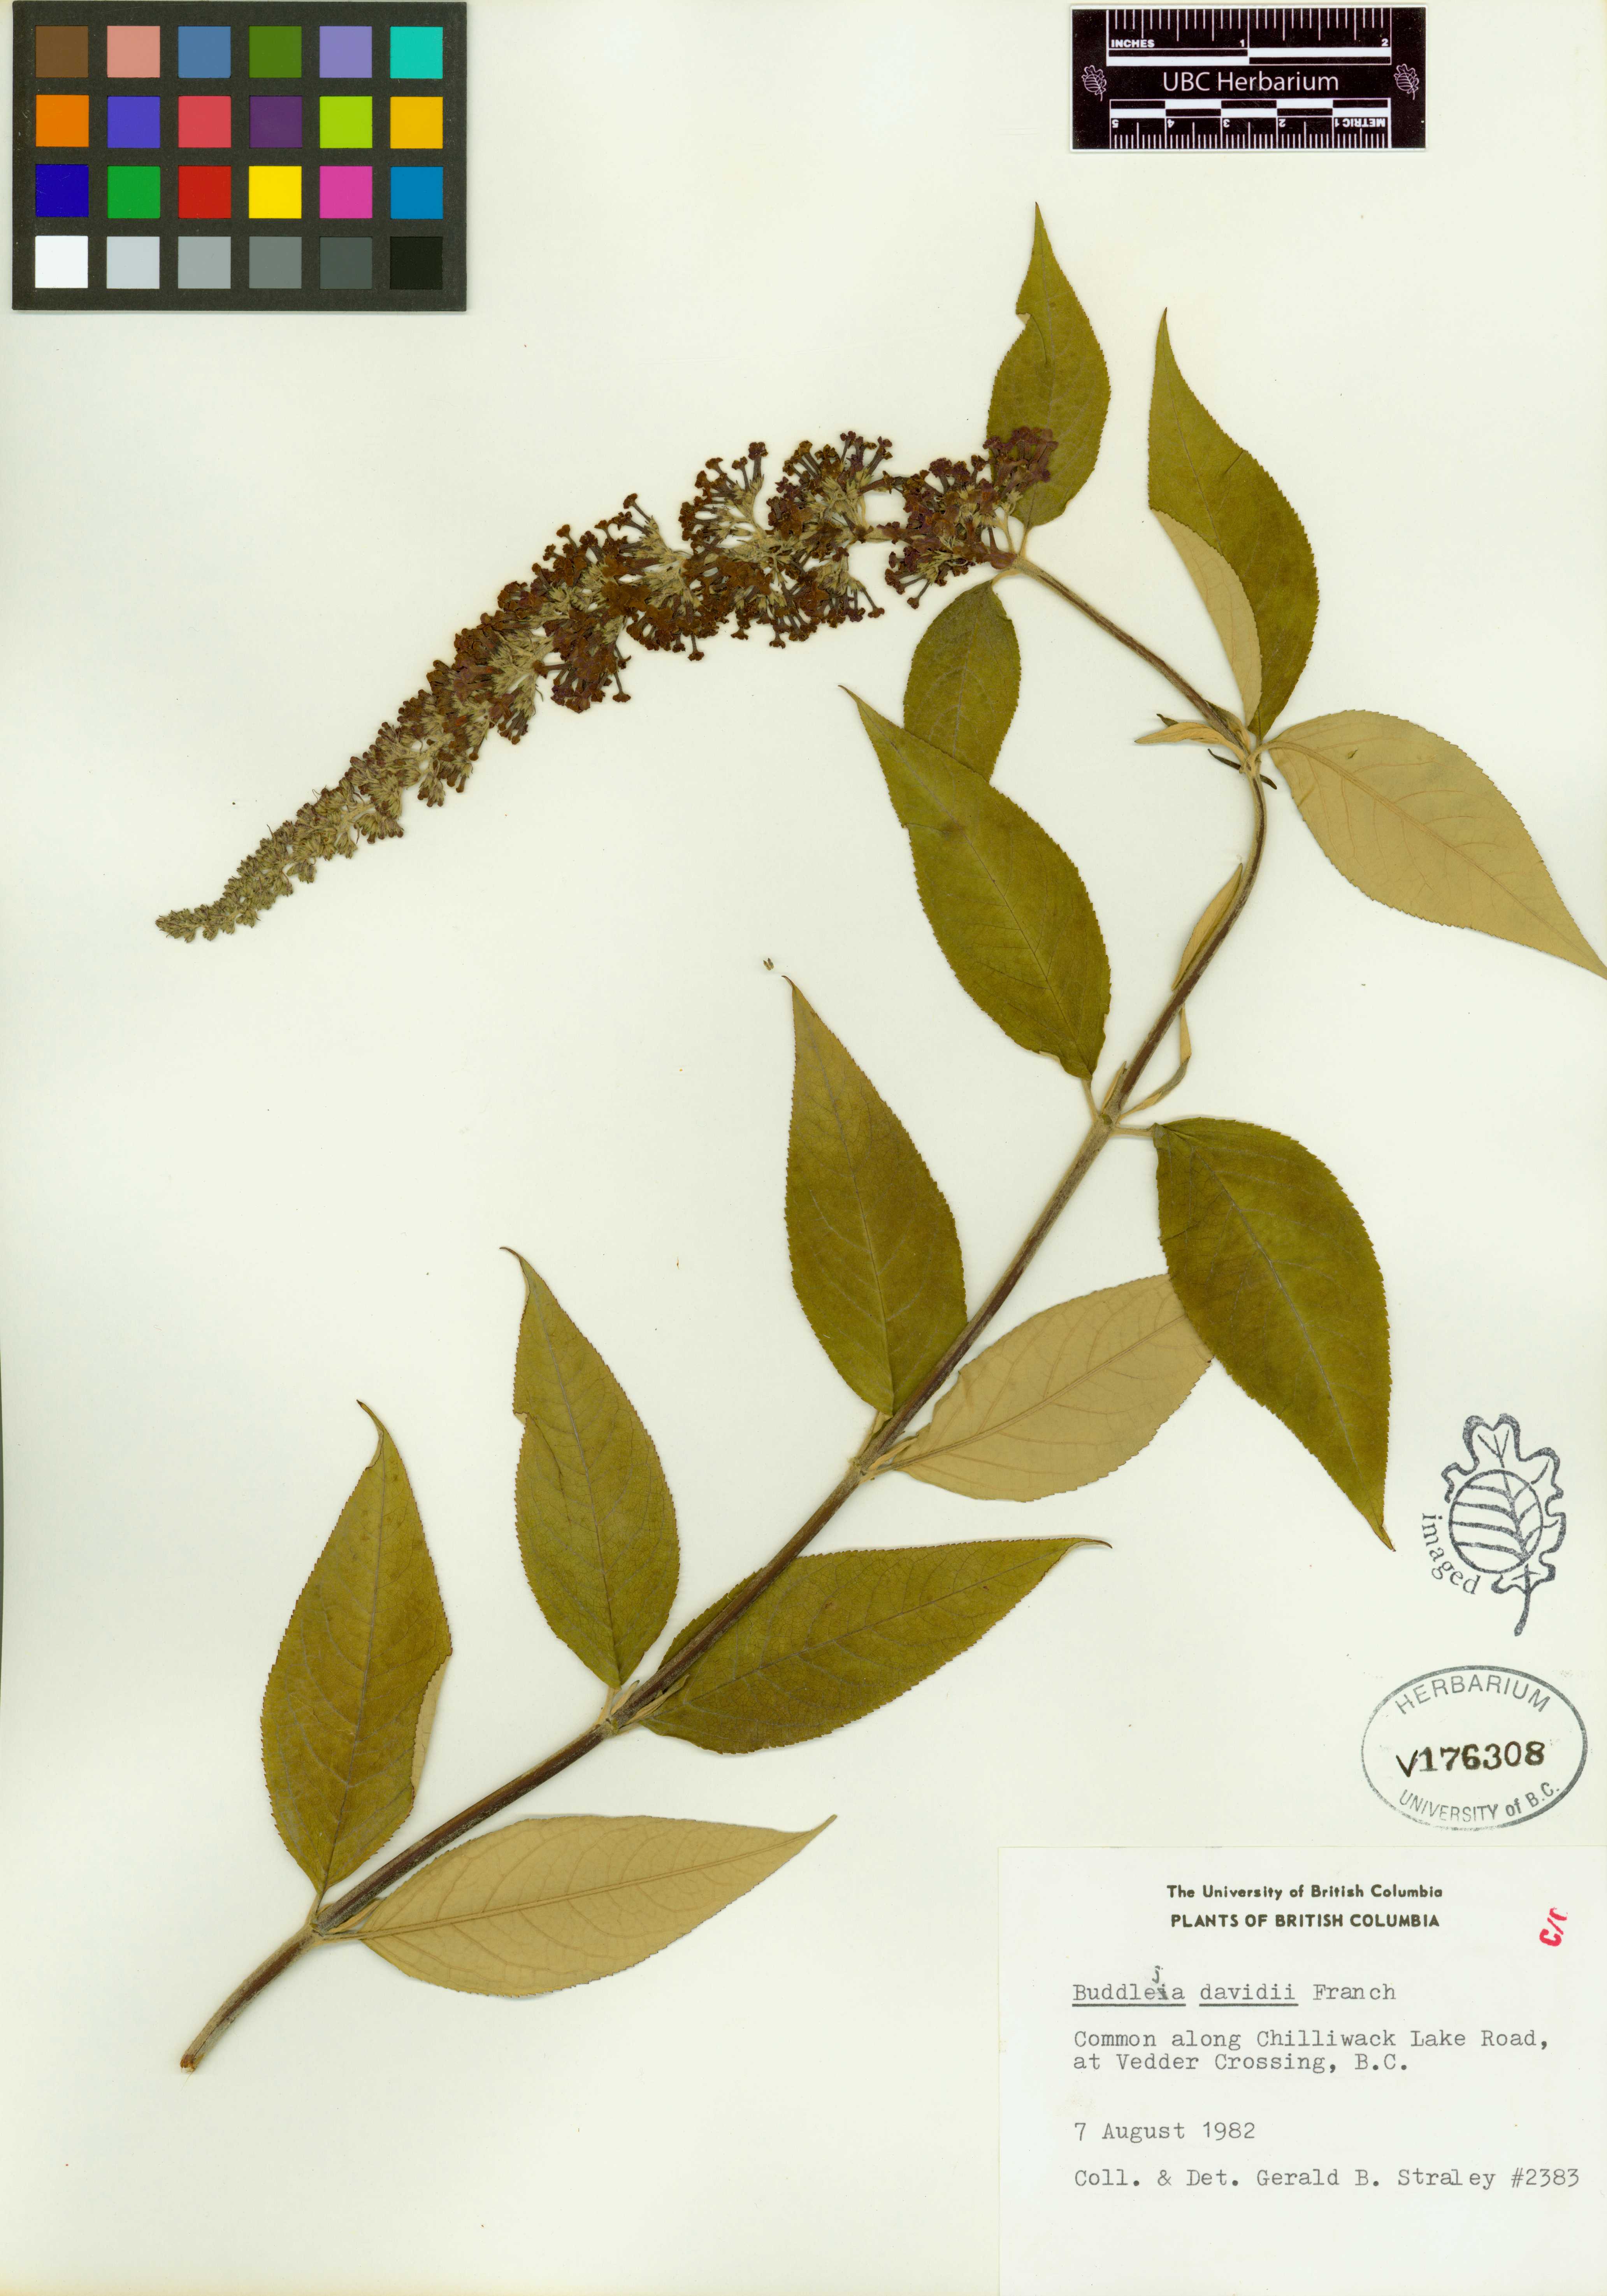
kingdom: Plantae
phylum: Tracheophyta
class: Magnoliopsida
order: Lamiales
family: Scrophulariaceae
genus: Buddleja
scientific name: Buddleja davidii
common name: Butterfly-bush
